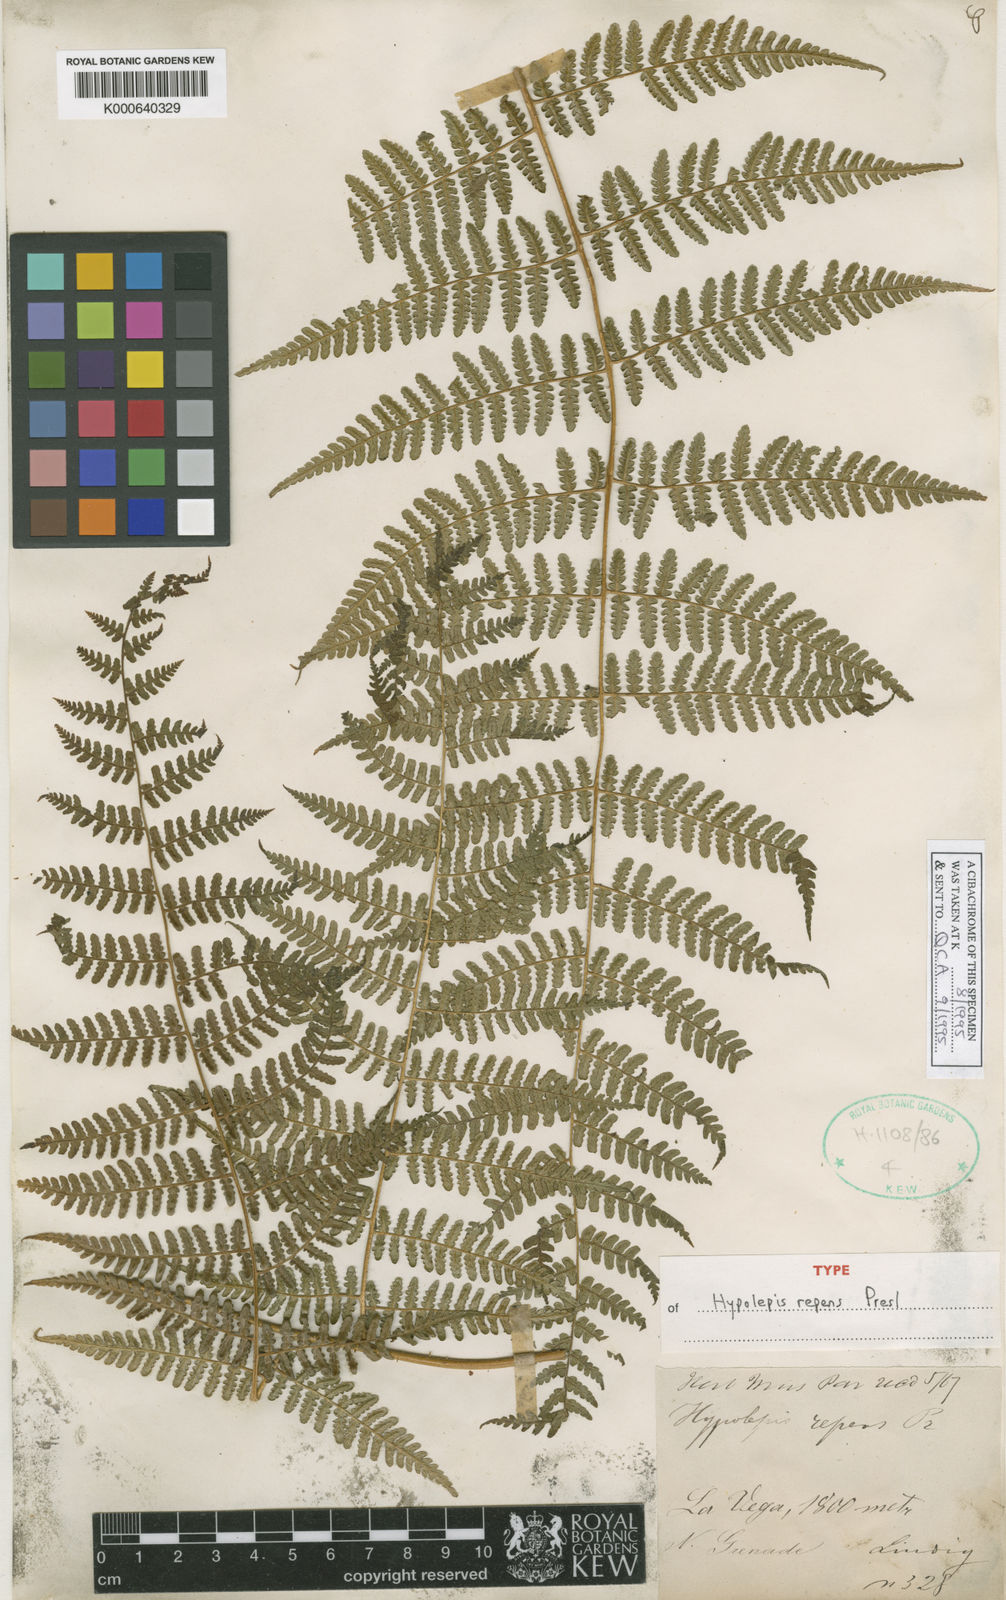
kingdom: Plantae
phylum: Tracheophyta
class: Polypodiopsida
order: Polypodiales
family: Dennstaedtiaceae
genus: Hypolepis
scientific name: Hypolepis repens
